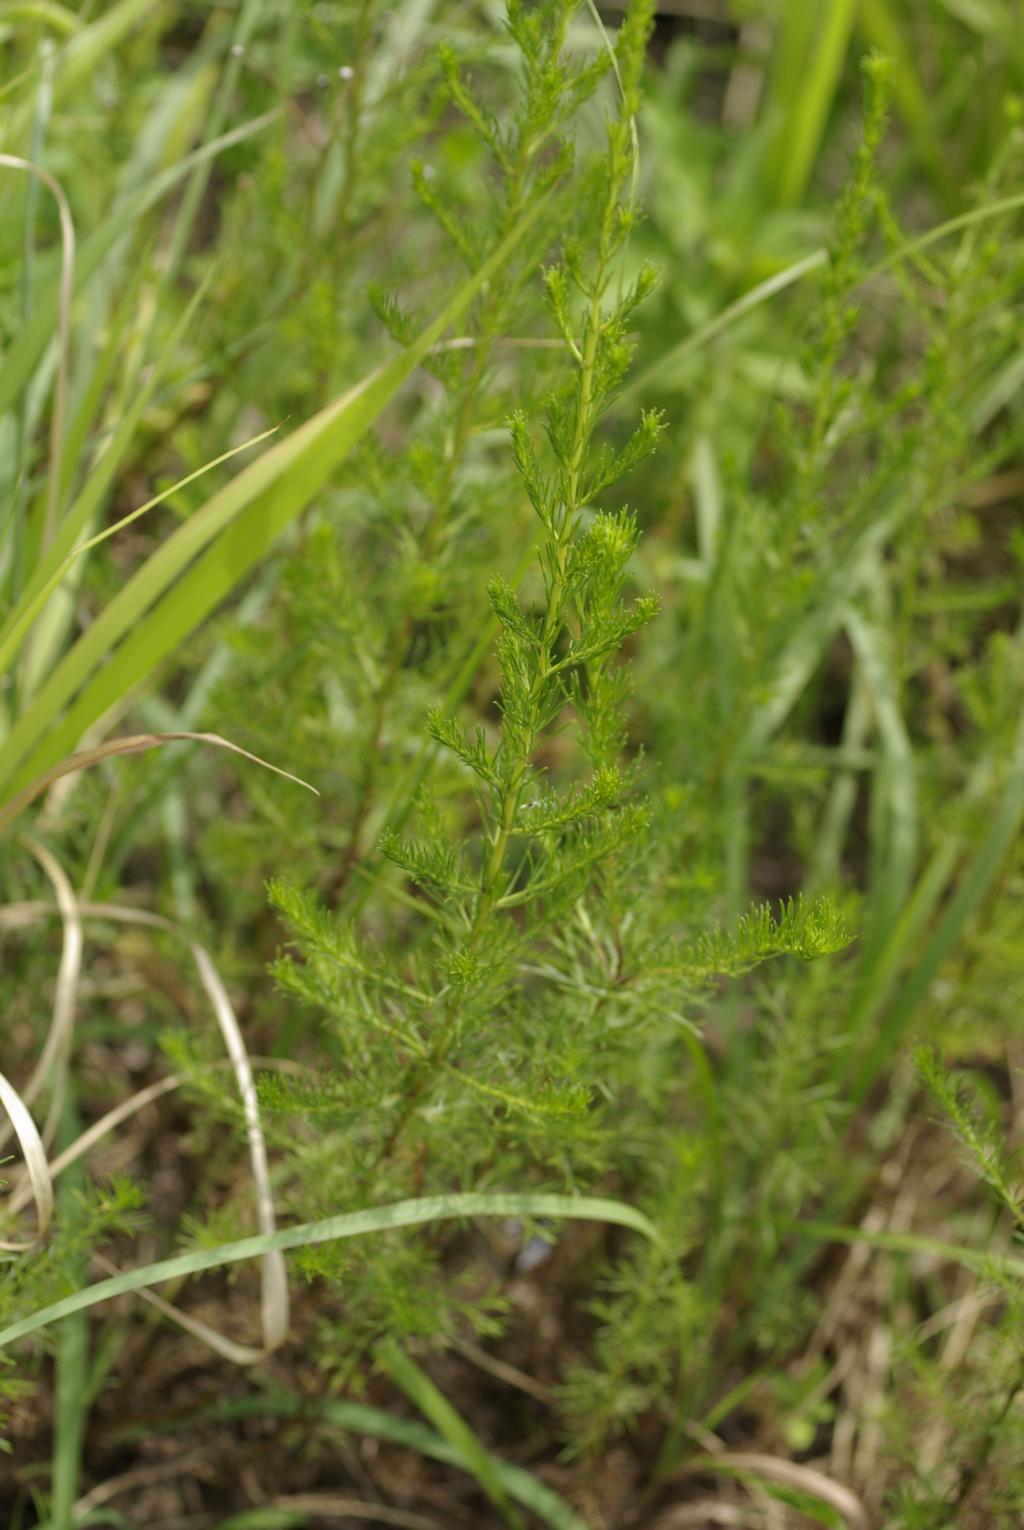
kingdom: Plantae
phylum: Tracheophyta
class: Magnoliopsida
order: Asterales
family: Asteraceae
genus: Artemisia
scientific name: Artemisia capillaris
